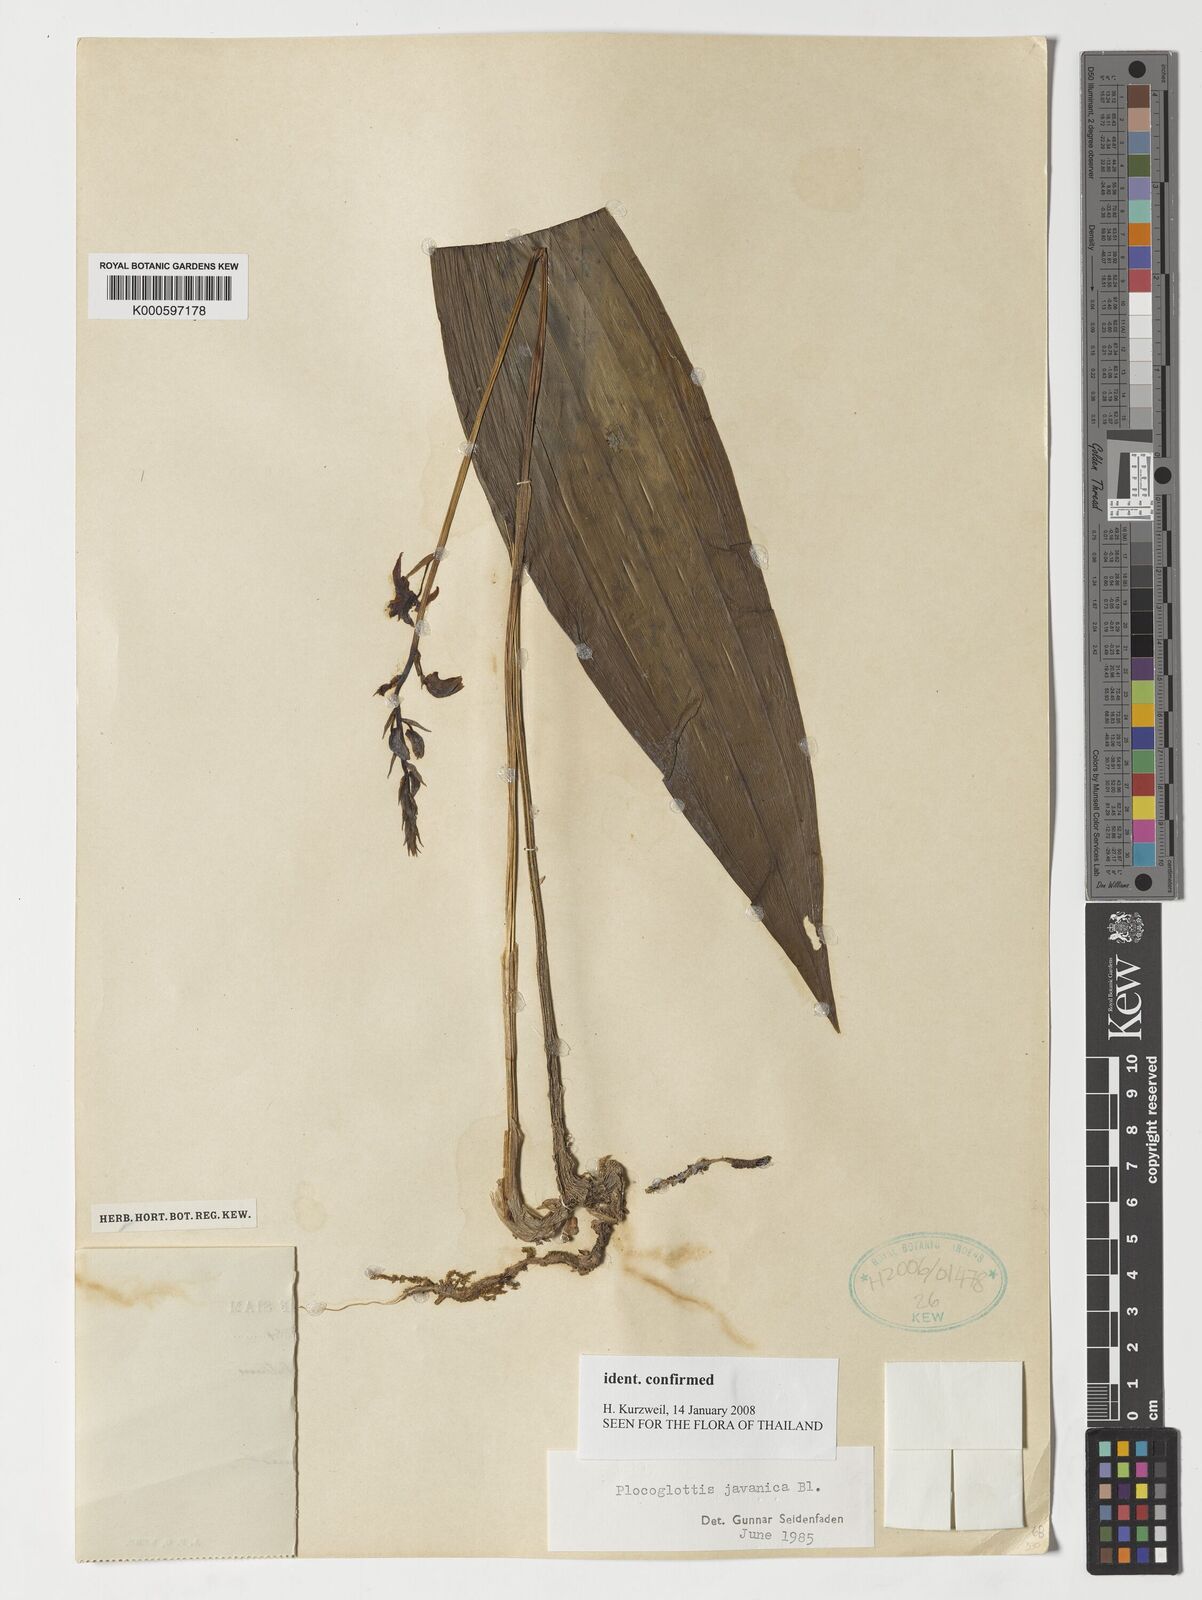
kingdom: Plantae
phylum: Tracheophyta
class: Liliopsida
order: Asparagales
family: Orchidaceae
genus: Plocoglottis
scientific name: Plocoglottis javanica
